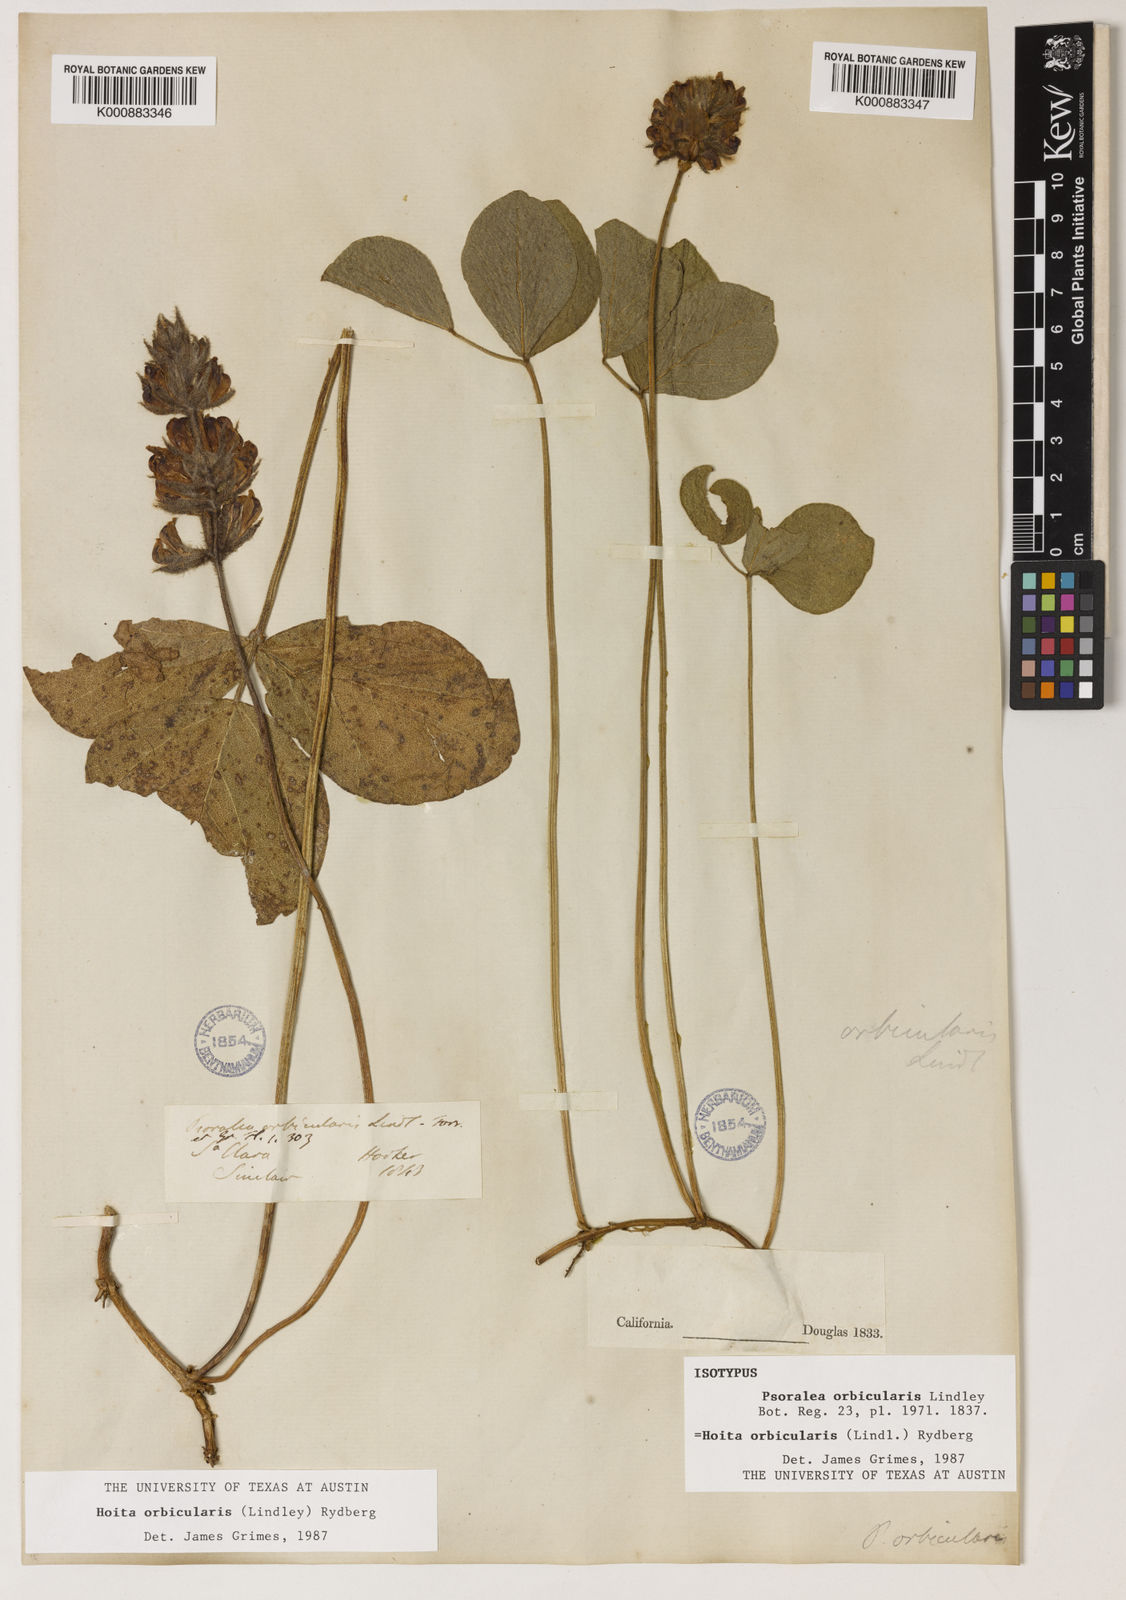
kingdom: Plantae
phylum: Tracheophyta
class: Magnoliopsida
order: Fabales
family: Fabaceae
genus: Hoita
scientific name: Hoita orbicularis
